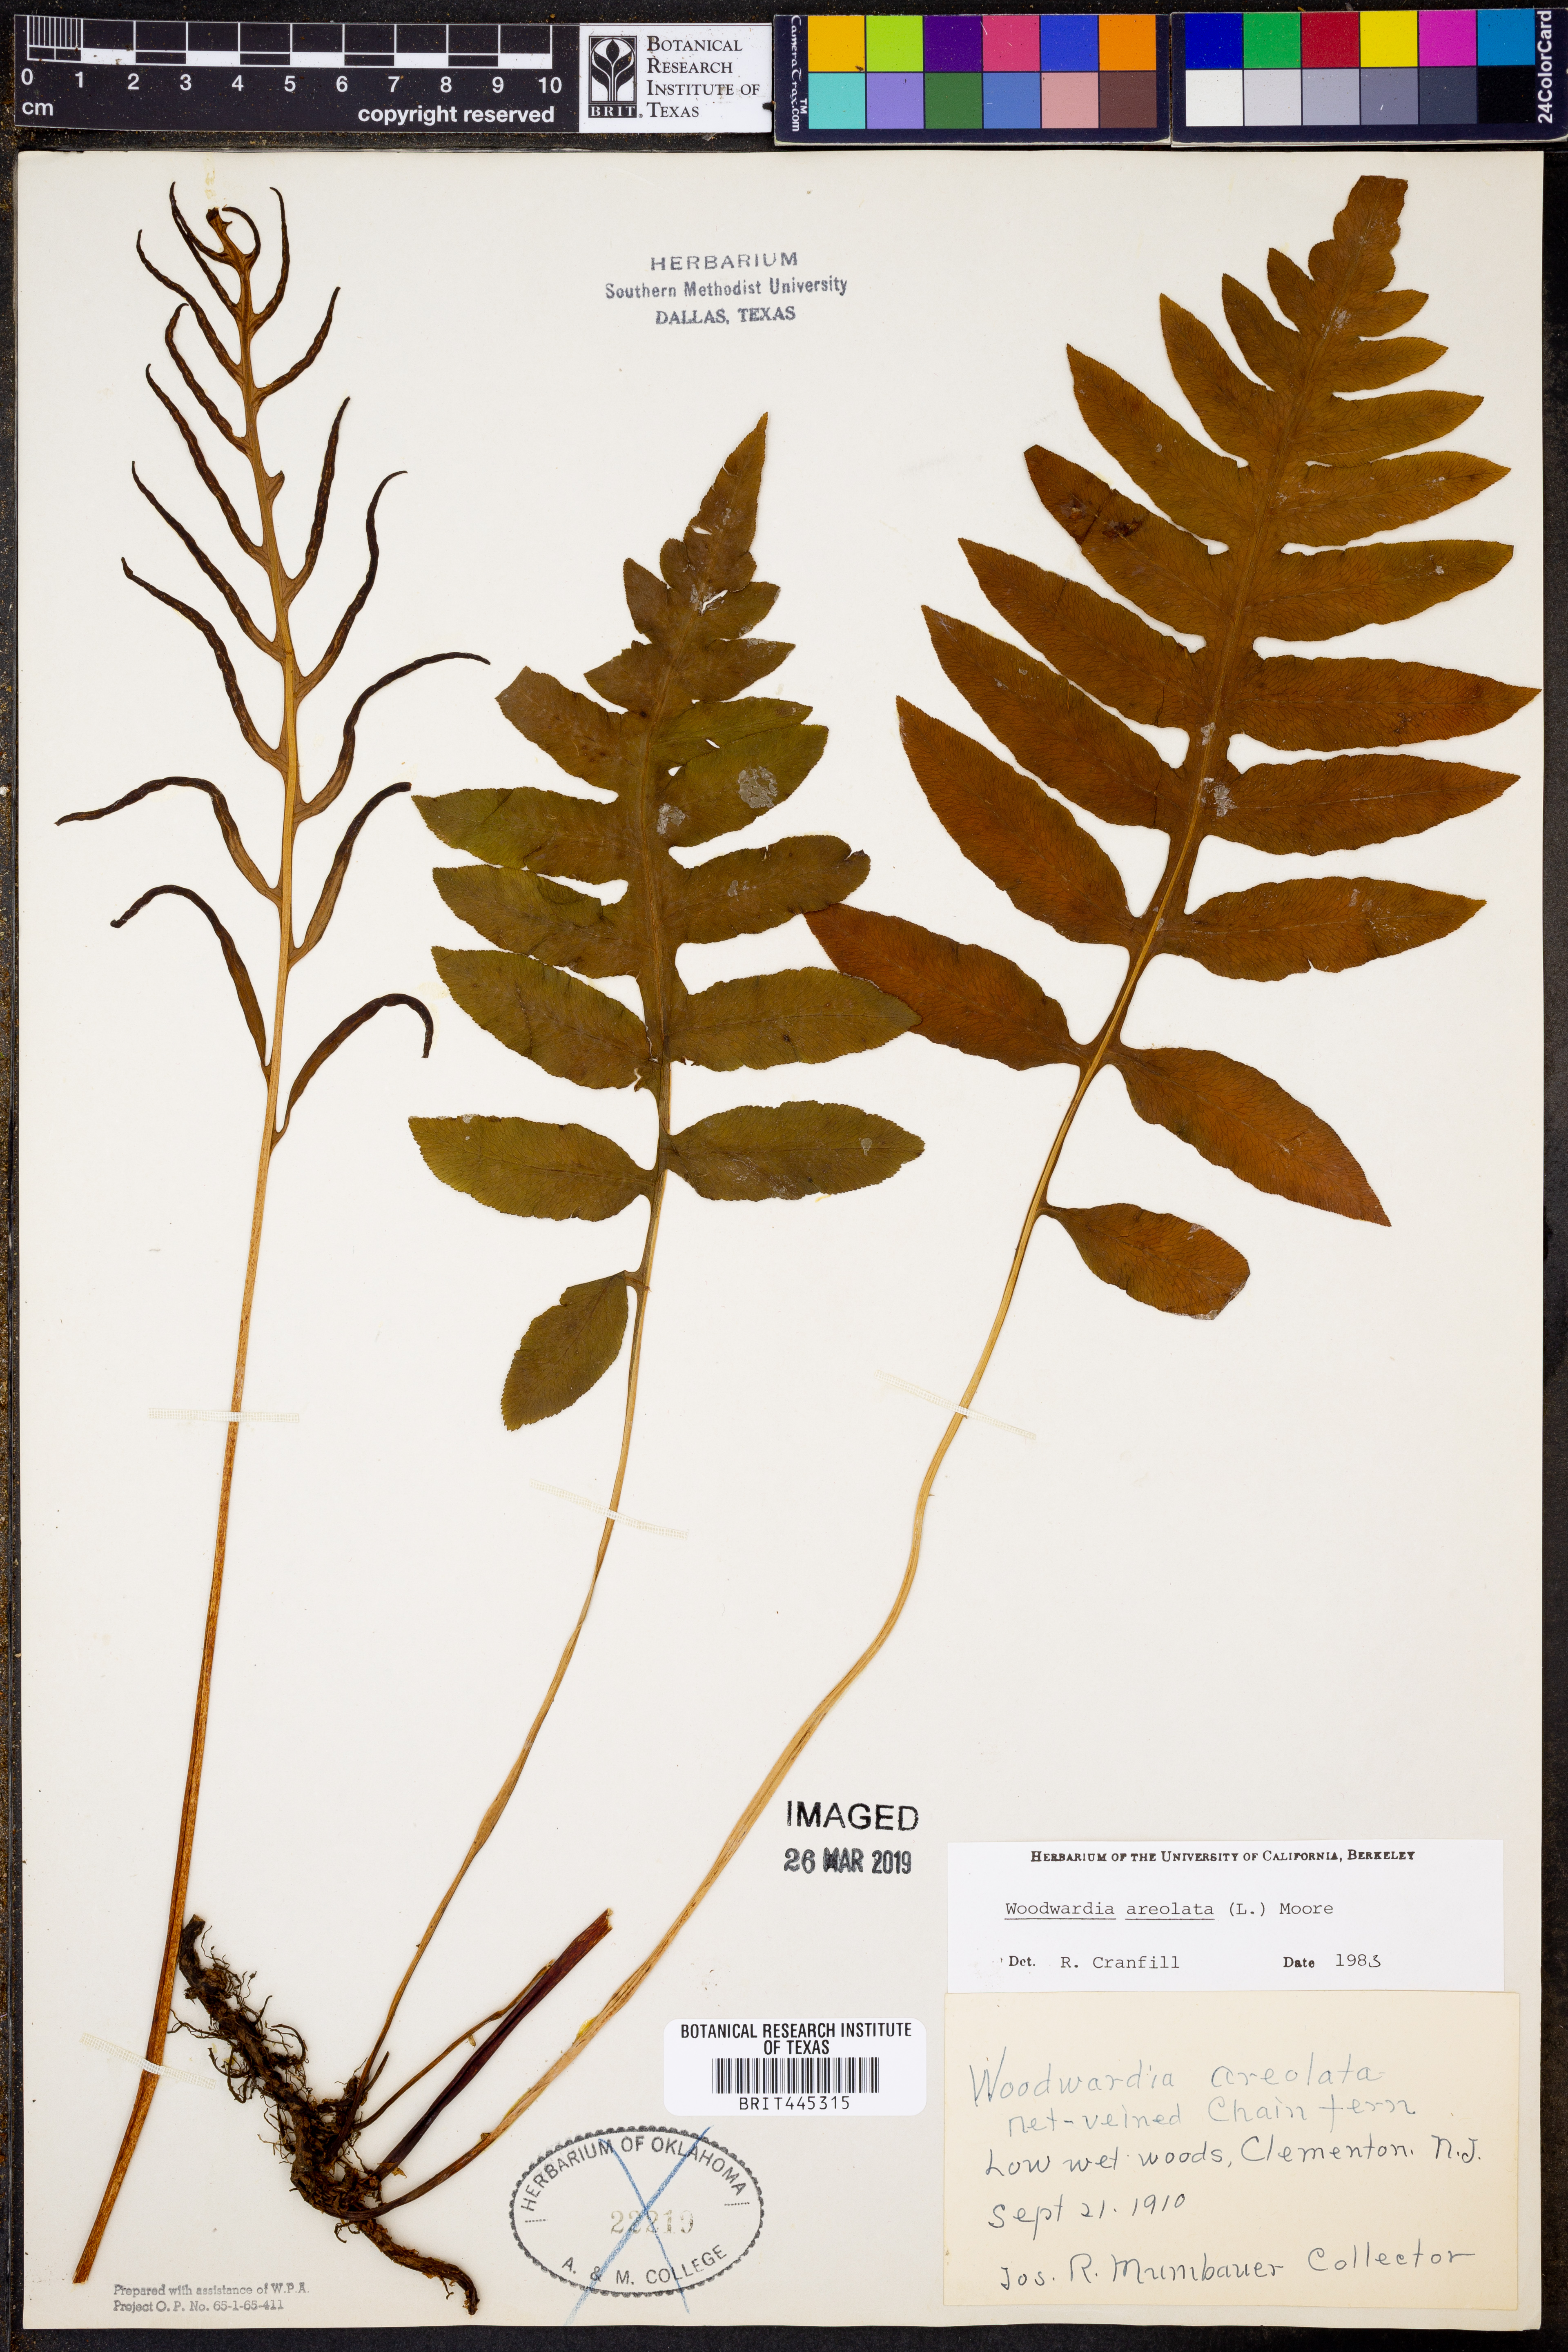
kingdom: Plantae
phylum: Tracheophyta
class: Polypodiopsida
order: Polypodiales
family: Blechnaceae
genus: Lorinseria
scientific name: Lorinseria areolata
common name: Dwarf chain fern
